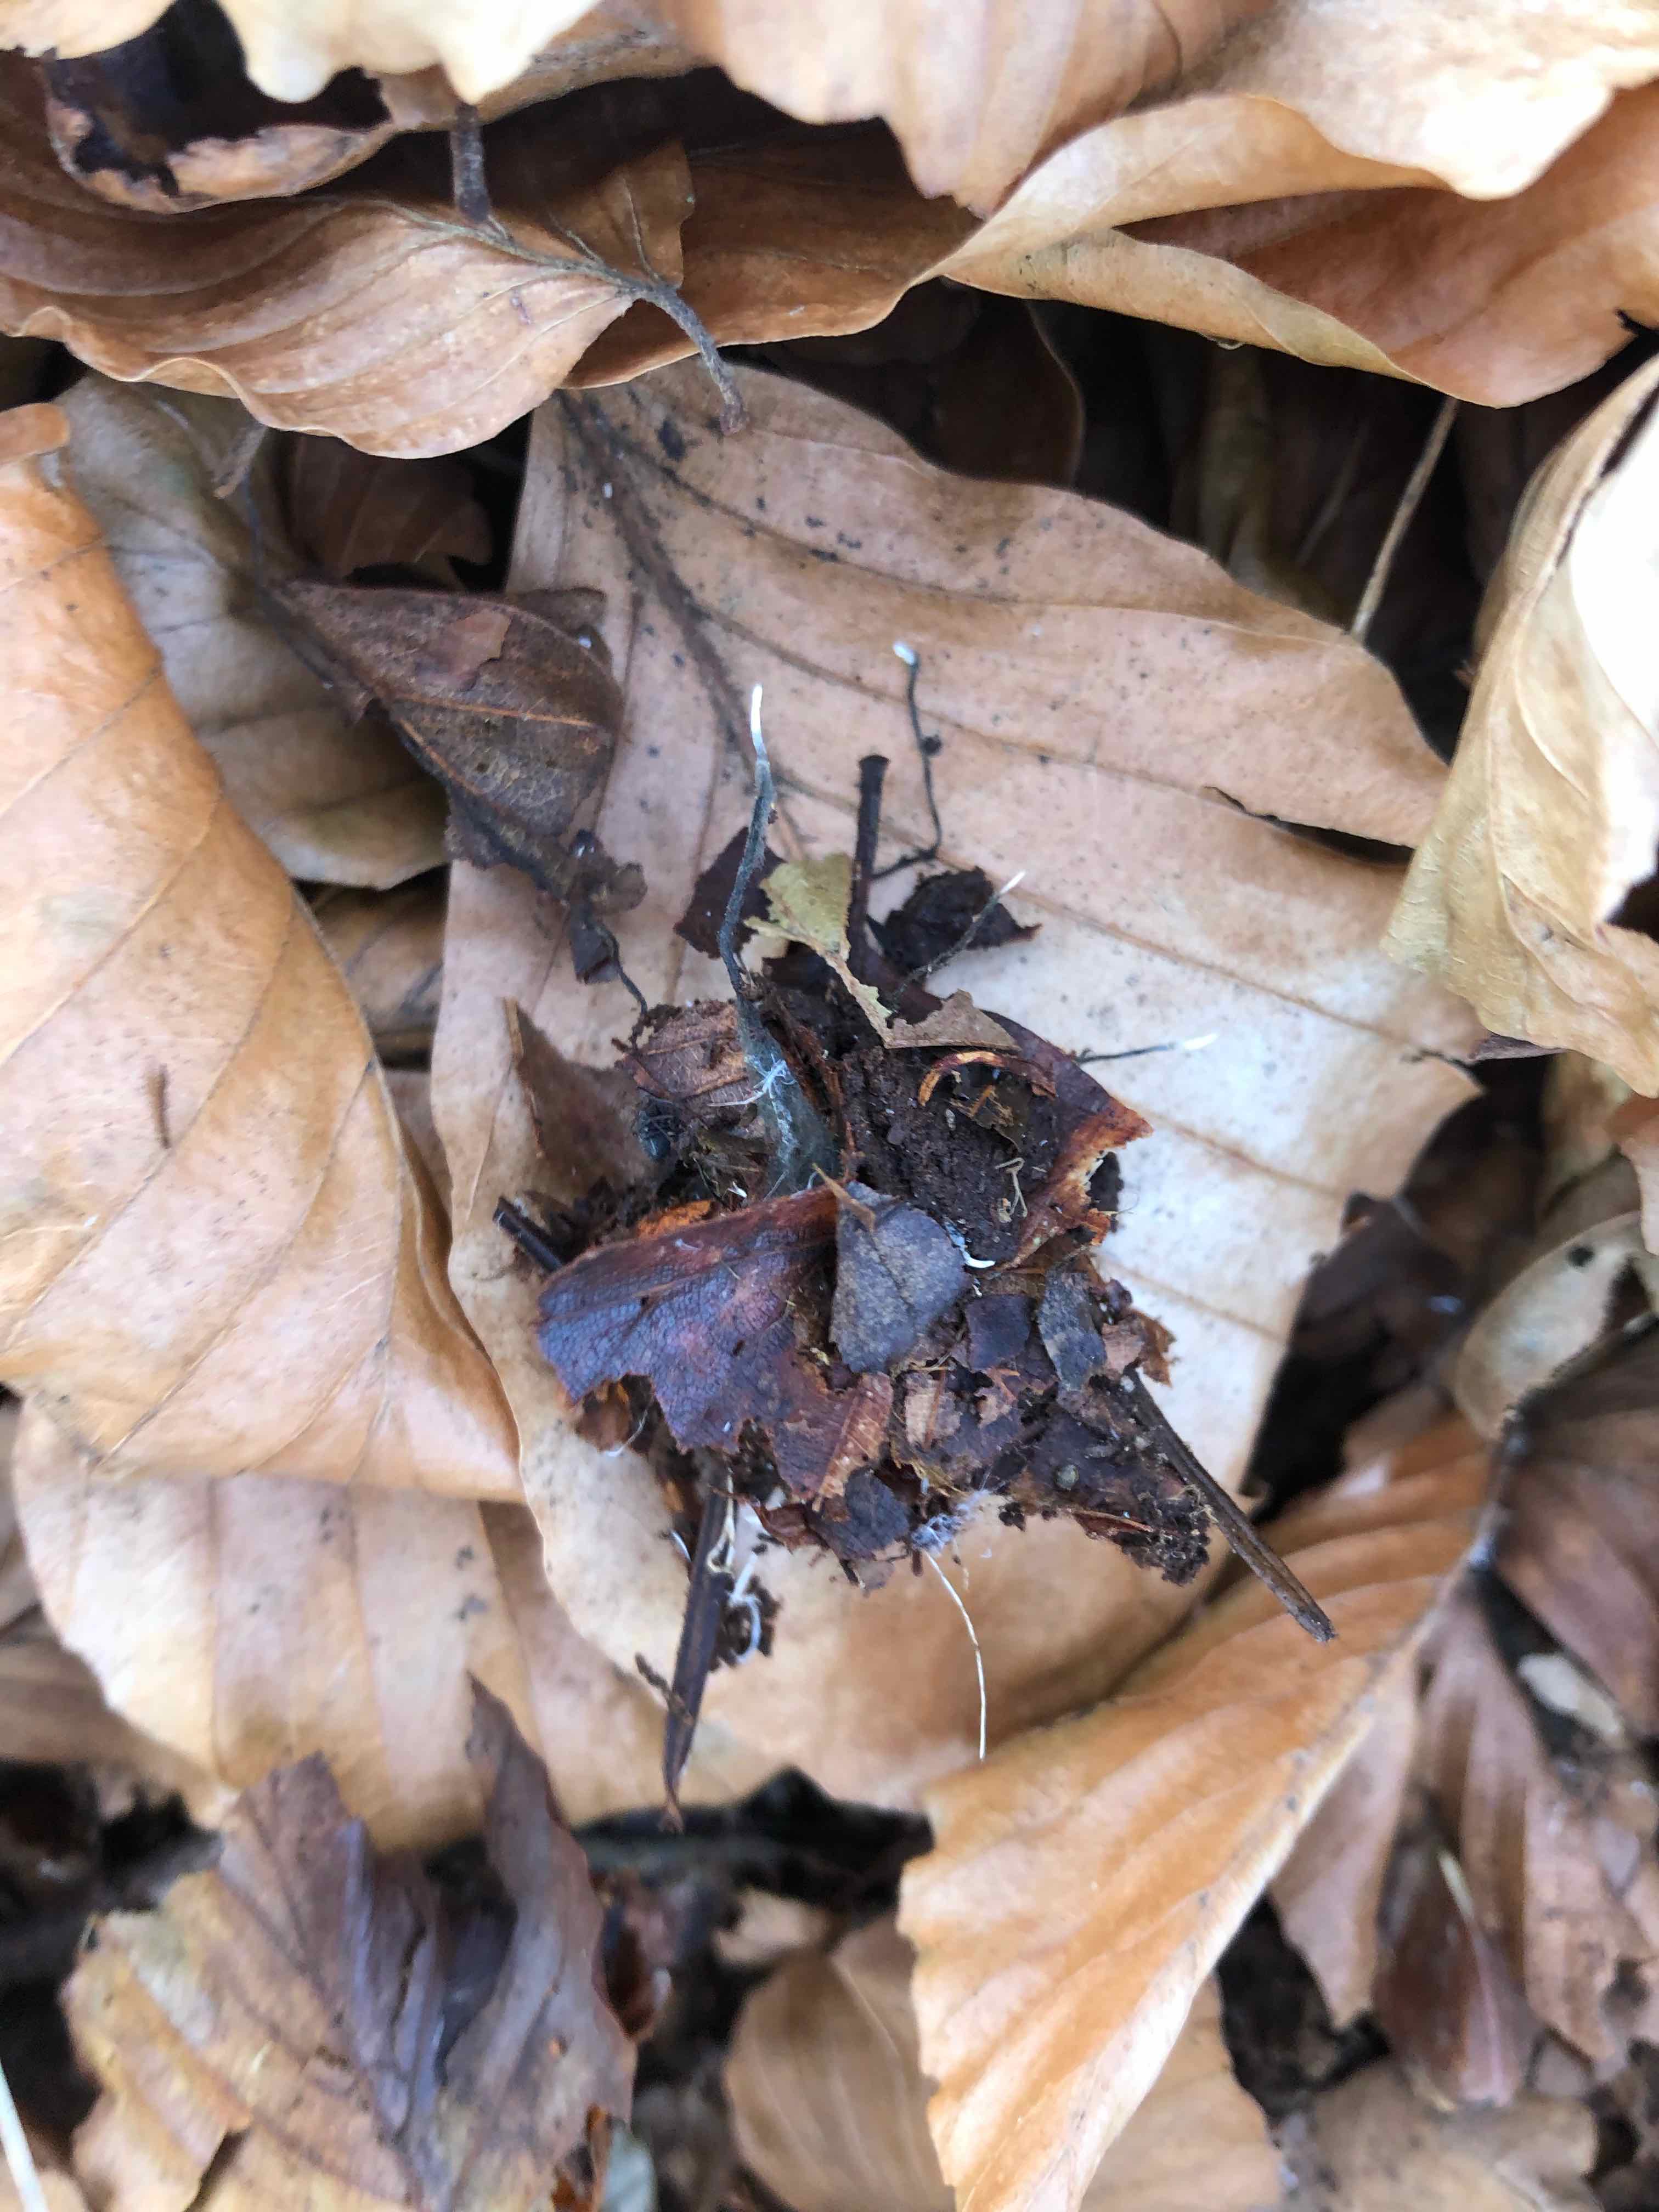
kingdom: Fungi
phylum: Ascomycota
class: Sordariomycetes
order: Xylariales
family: Xylariaceae
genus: Xylaria
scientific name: Xylaria carpophila
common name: bogskål-stødsvamp
